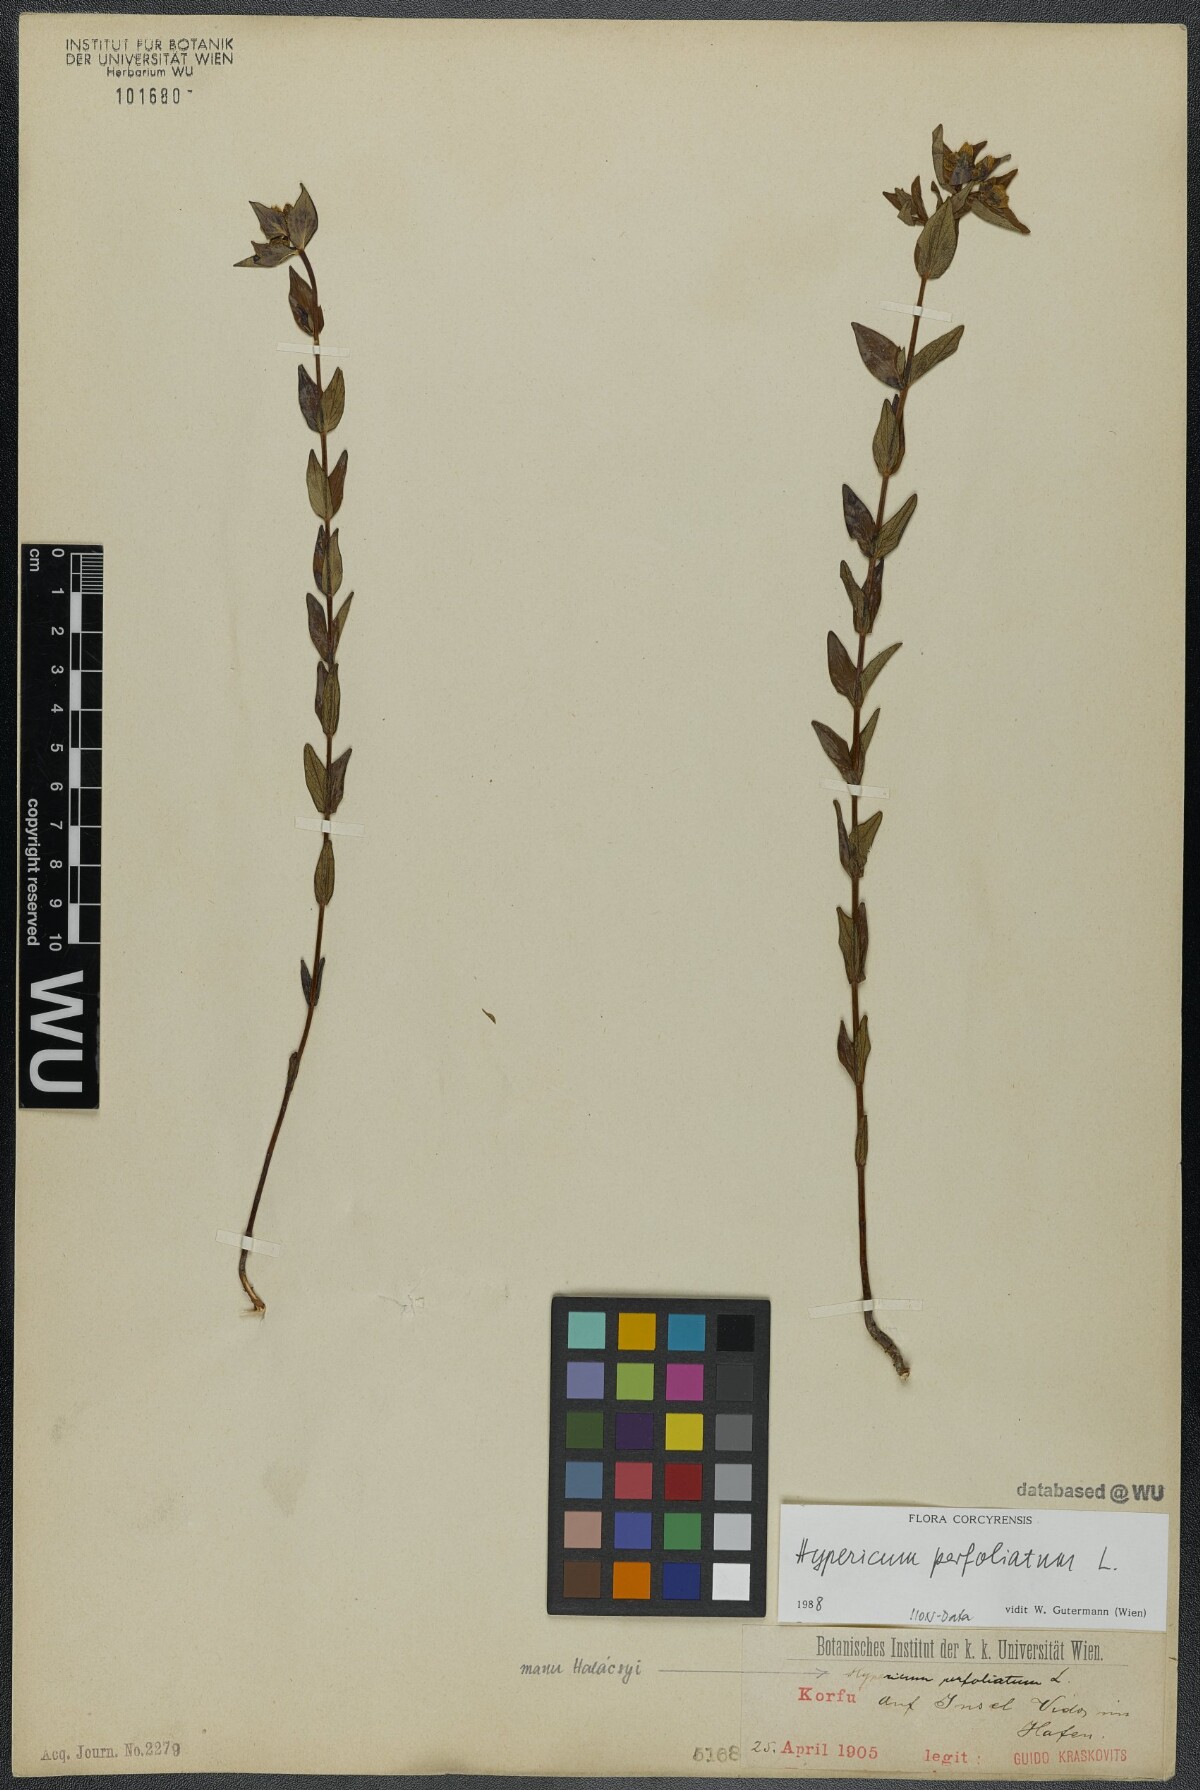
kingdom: Plantae
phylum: Tracheophyta
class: Magnoliopsida
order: Malpighiales
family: Hypericaceae
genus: Hypericum
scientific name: Hypericum perfoliatum
